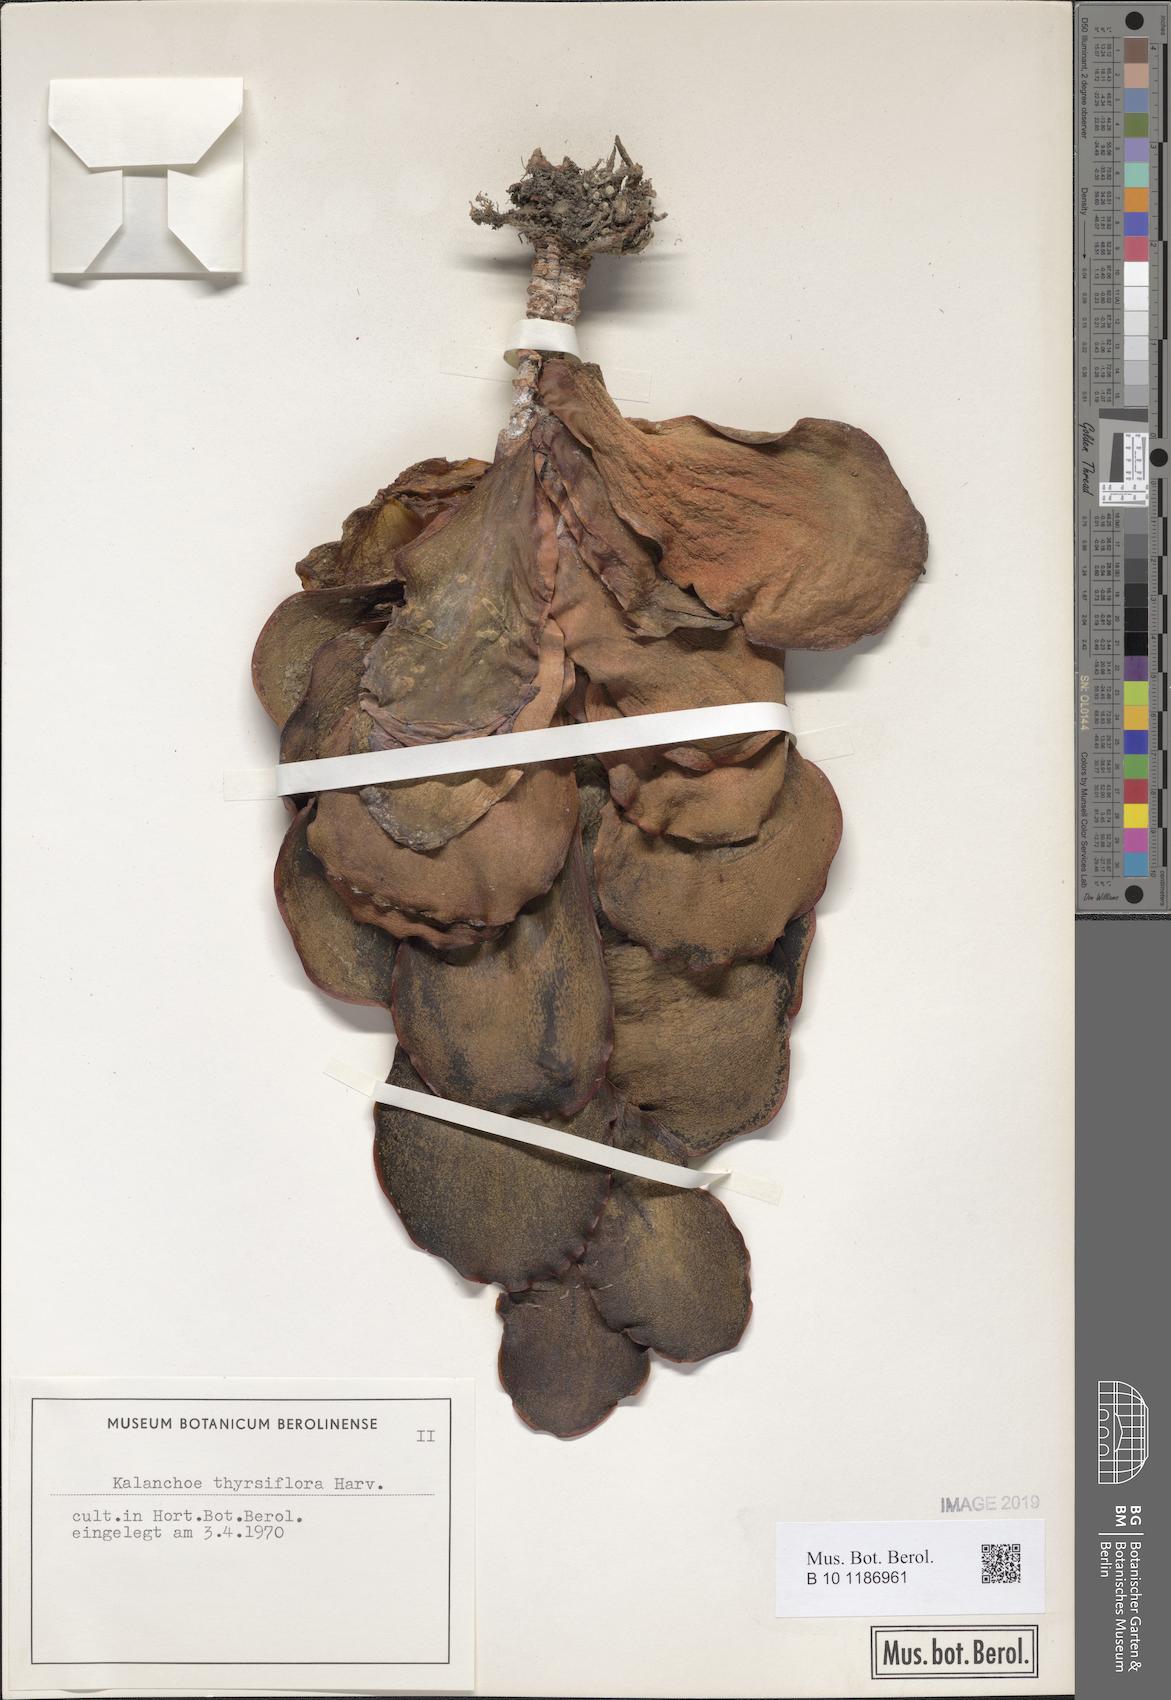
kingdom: Plantae
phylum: Tracheophyta
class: Magnoliopsida
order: Saxifragales
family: Crassulaceae
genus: Kalanchoe
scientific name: Kalanchoe thyrsiflora
